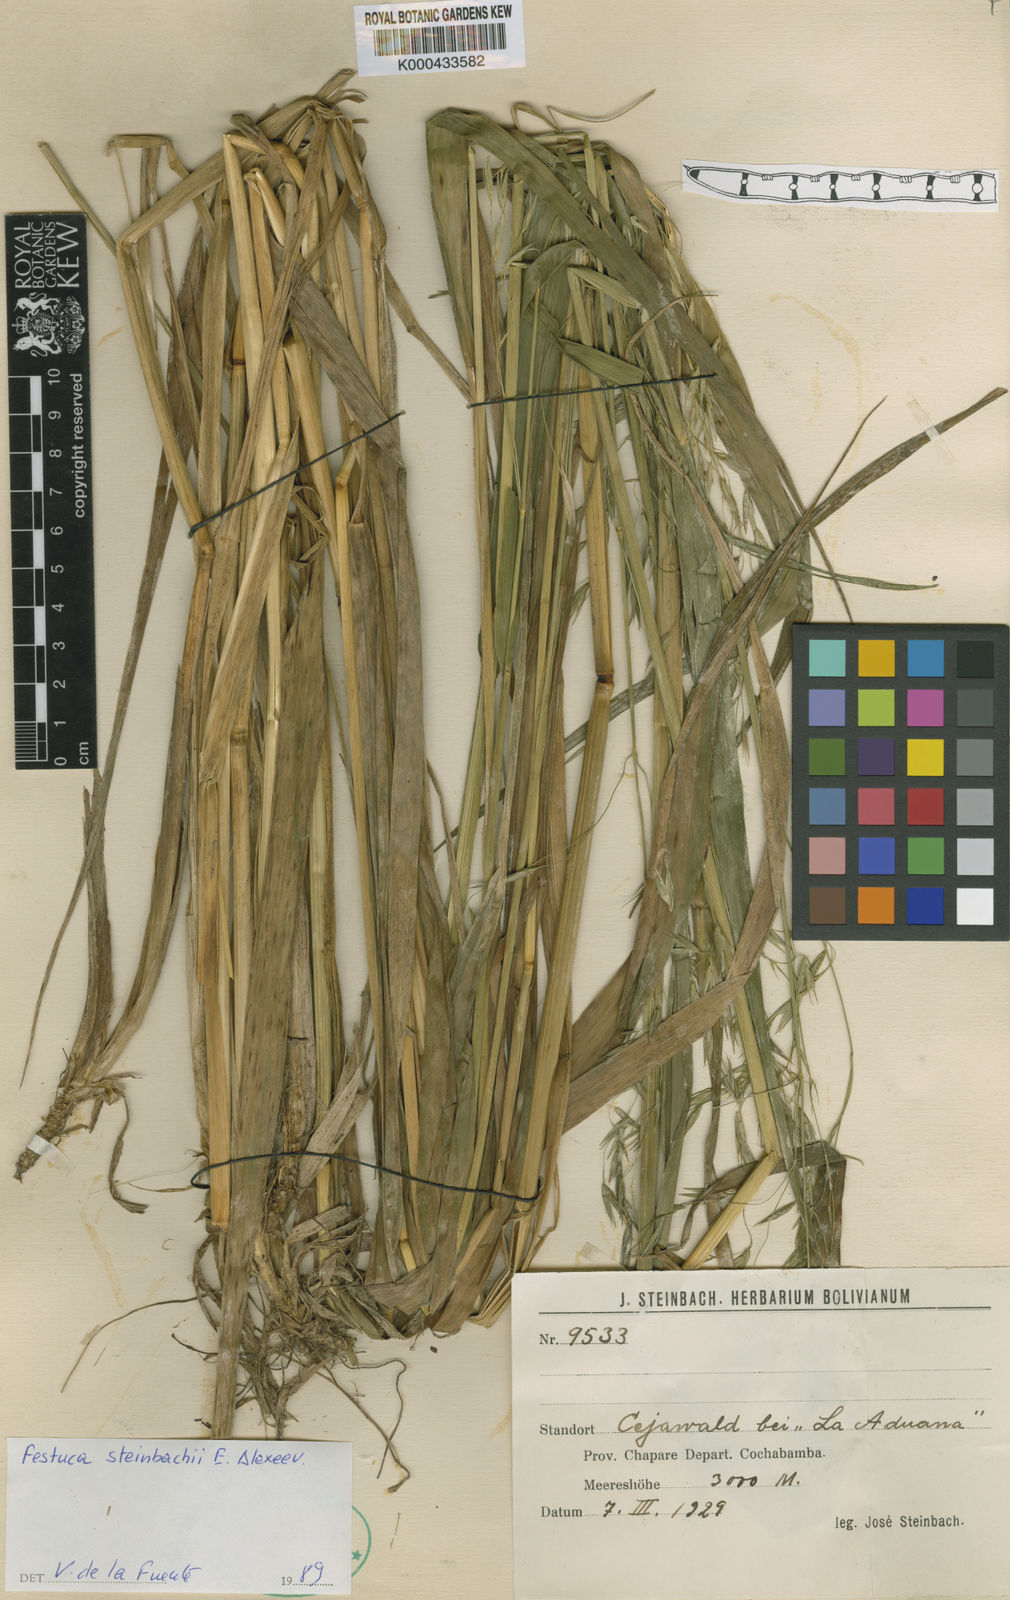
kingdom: Plantae
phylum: Tracheophyta
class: Liliopsida
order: Poales
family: Poaceae
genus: Festuca
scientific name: Festuca steinbachii
